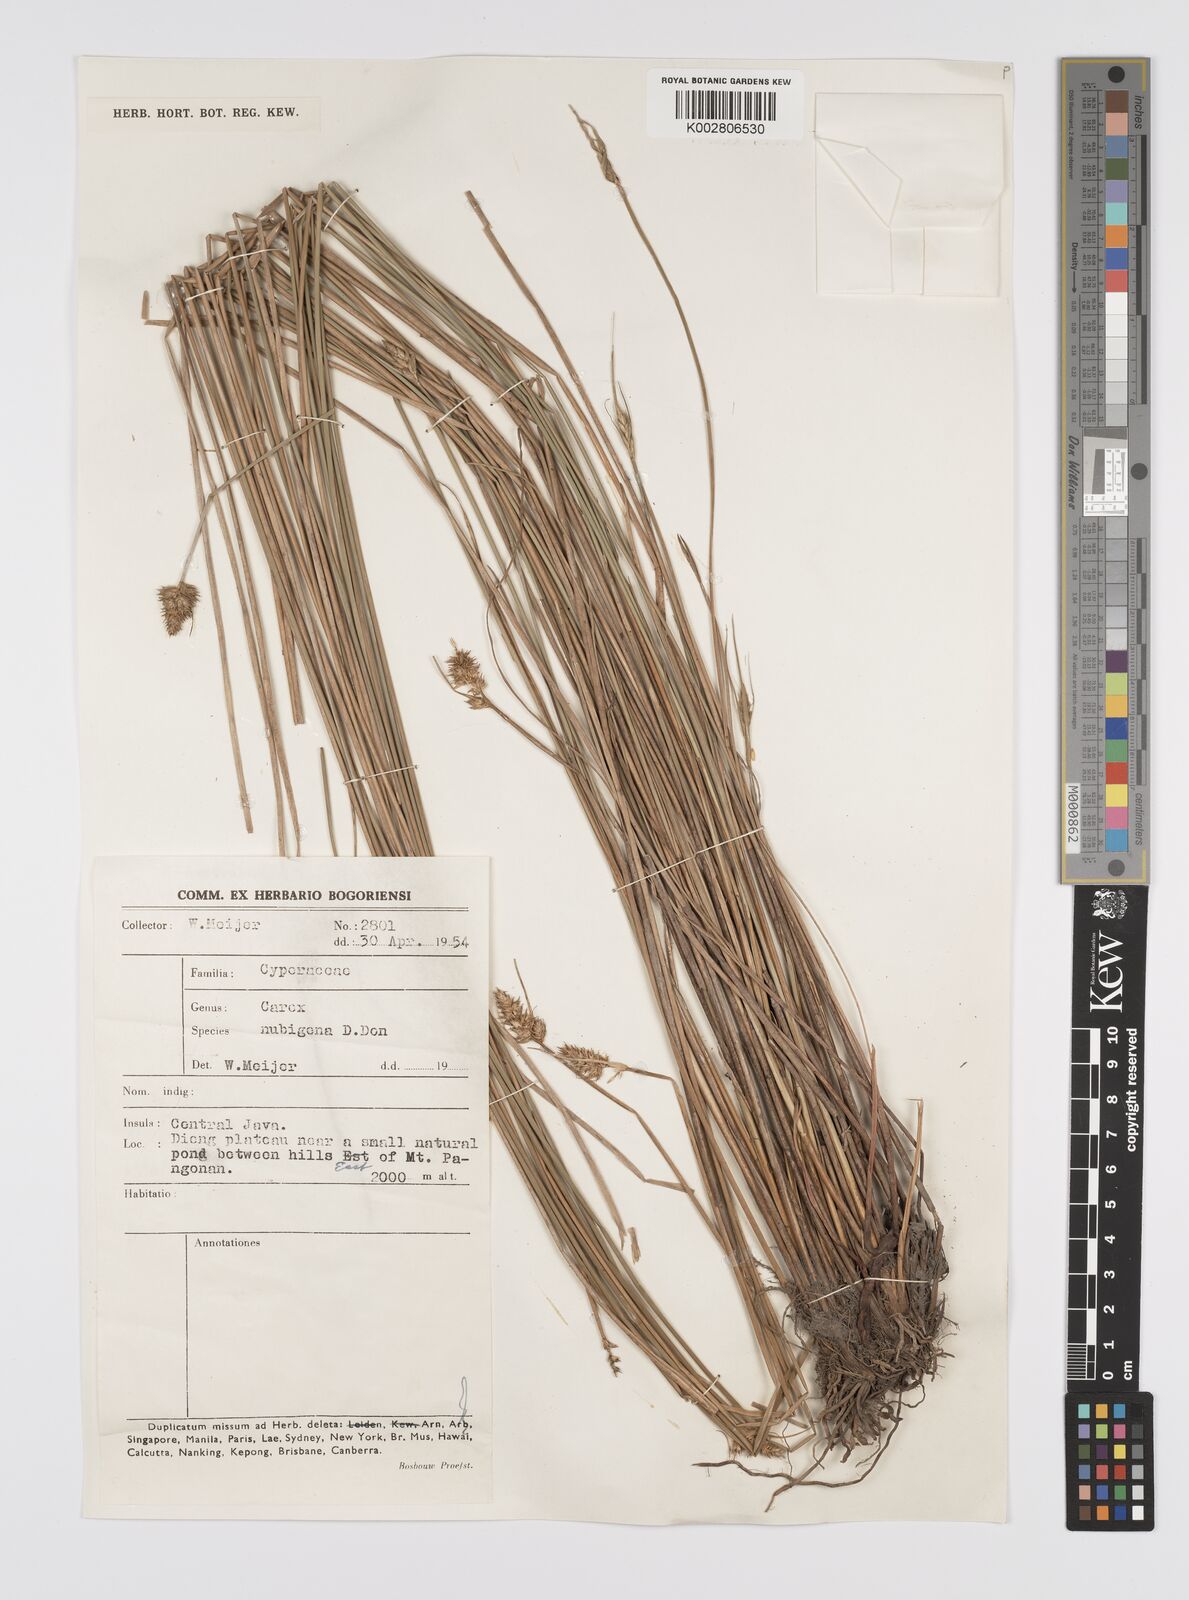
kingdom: Plantae
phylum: Tracheophyta
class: Liliopsida
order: Poales
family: Cyperaceae
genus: Carex
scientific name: Carex
